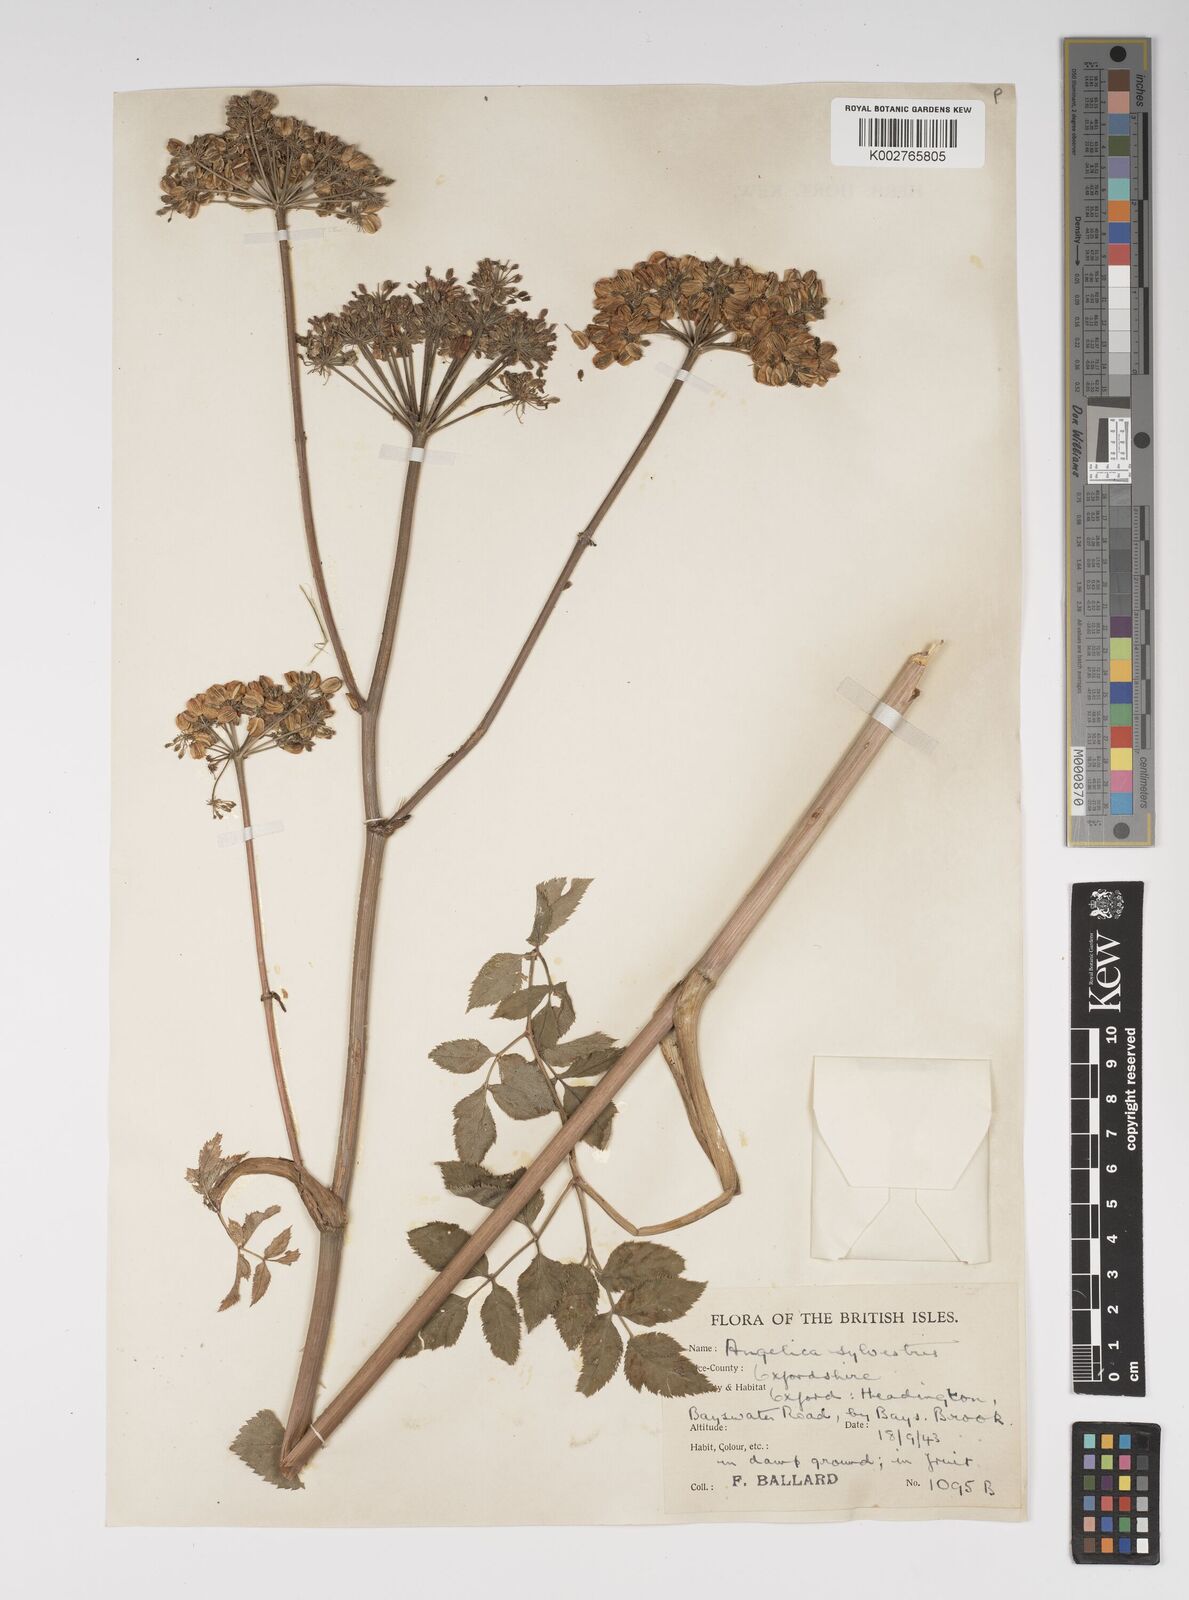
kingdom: Plantae
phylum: Tracheophyta
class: Magnoliopsida
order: Apiales
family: Apiaceae
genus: Angelica
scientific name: Angelica sylvestris
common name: Wild angelica
